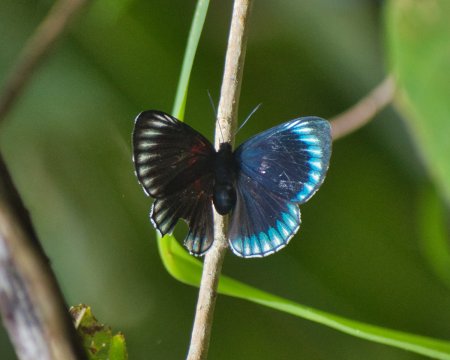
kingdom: Animalia
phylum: Arthropoda
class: Insecta
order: Lepidoptera
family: Lycaenidae
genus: Necyria
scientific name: Necyria duellona
